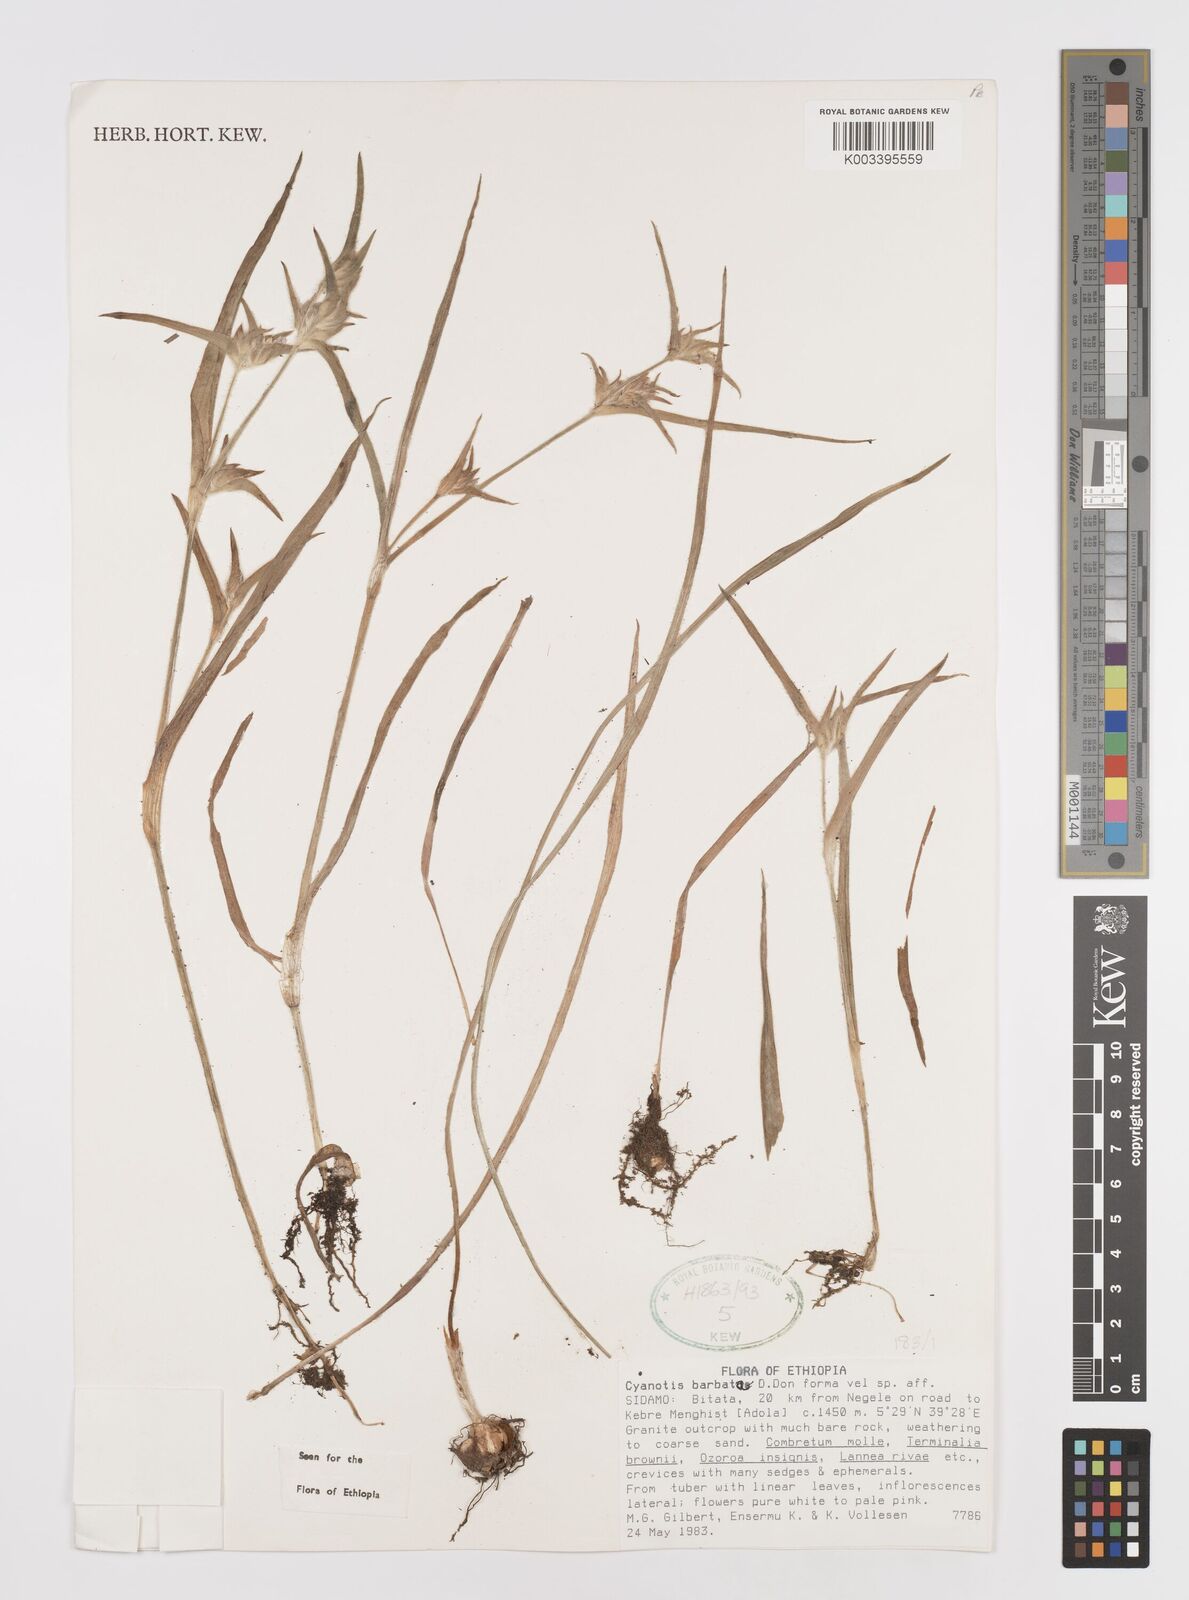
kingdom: Plantae
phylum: Tracheophyta
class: Liliopsida
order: Commelinales
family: Commelinaceae
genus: Cyanotis
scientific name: Cyanotis vaga
